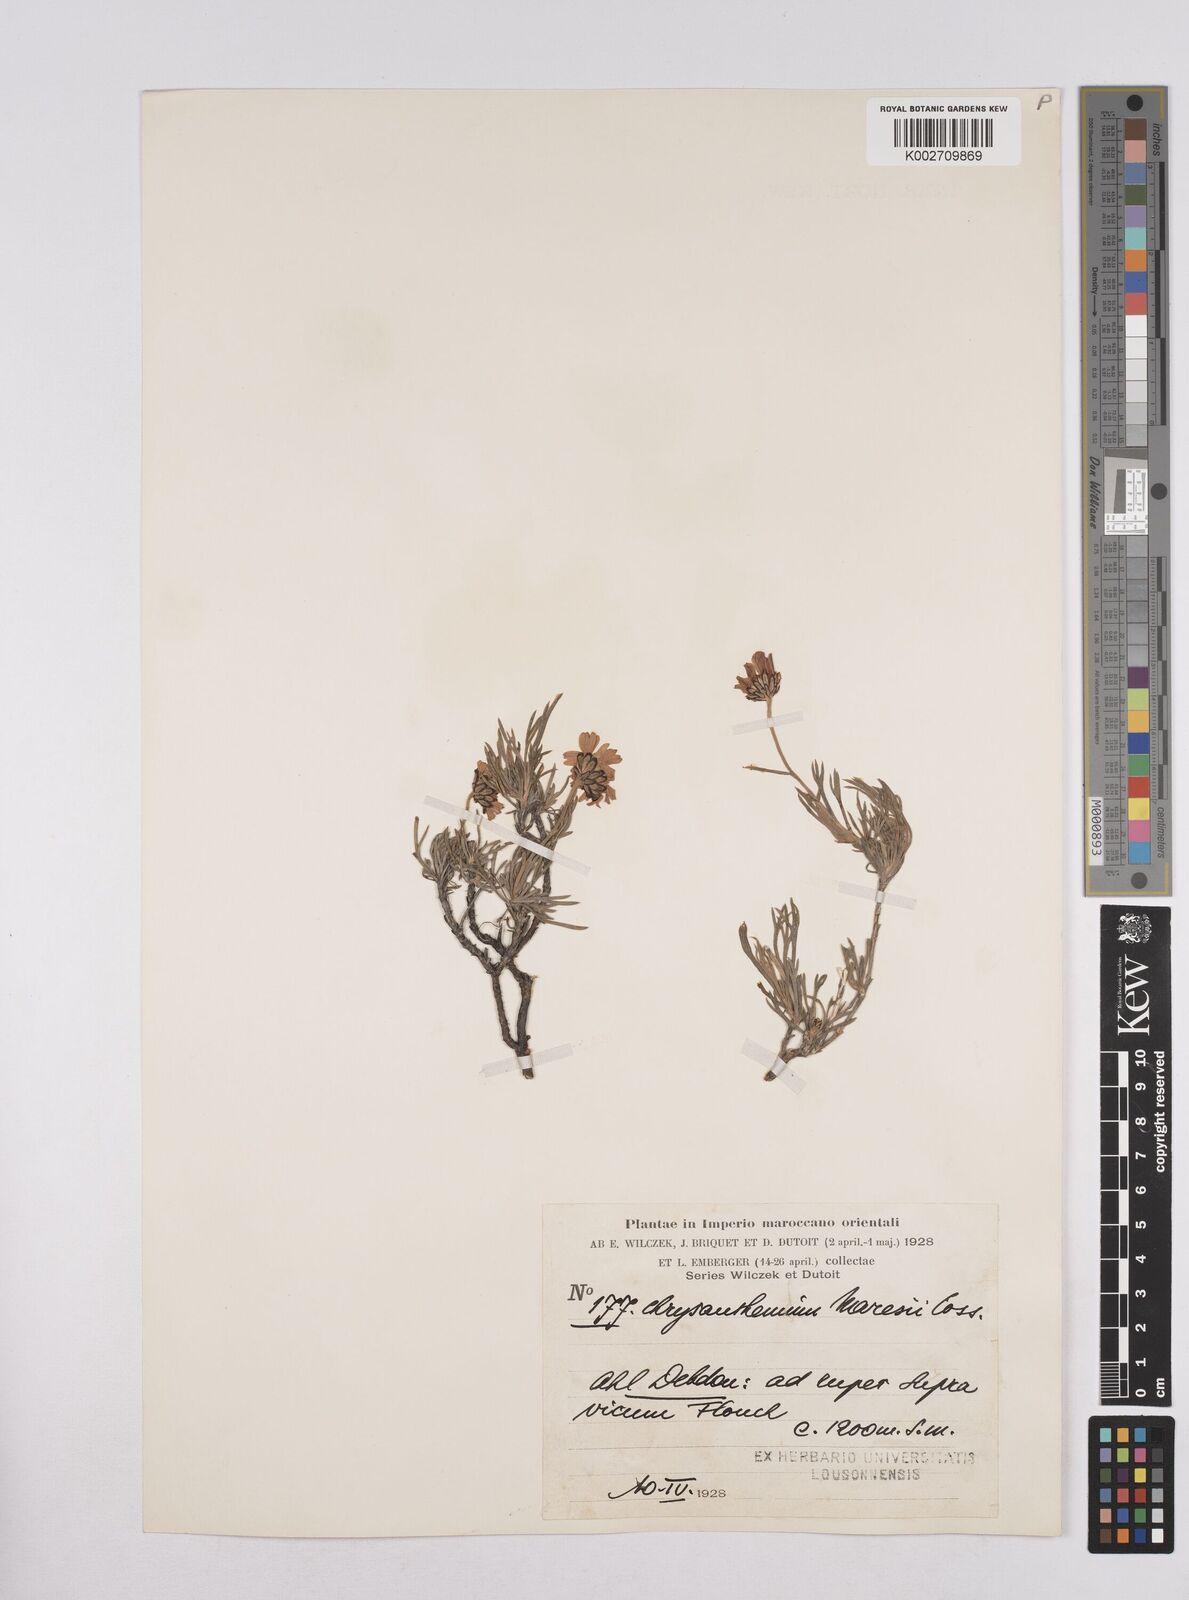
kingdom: Plantae
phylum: Tracheophyta
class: Magnoliopsida
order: Asterales
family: Asteraceae
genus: Rhodanthemum
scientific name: Rhodanthemum maresii
